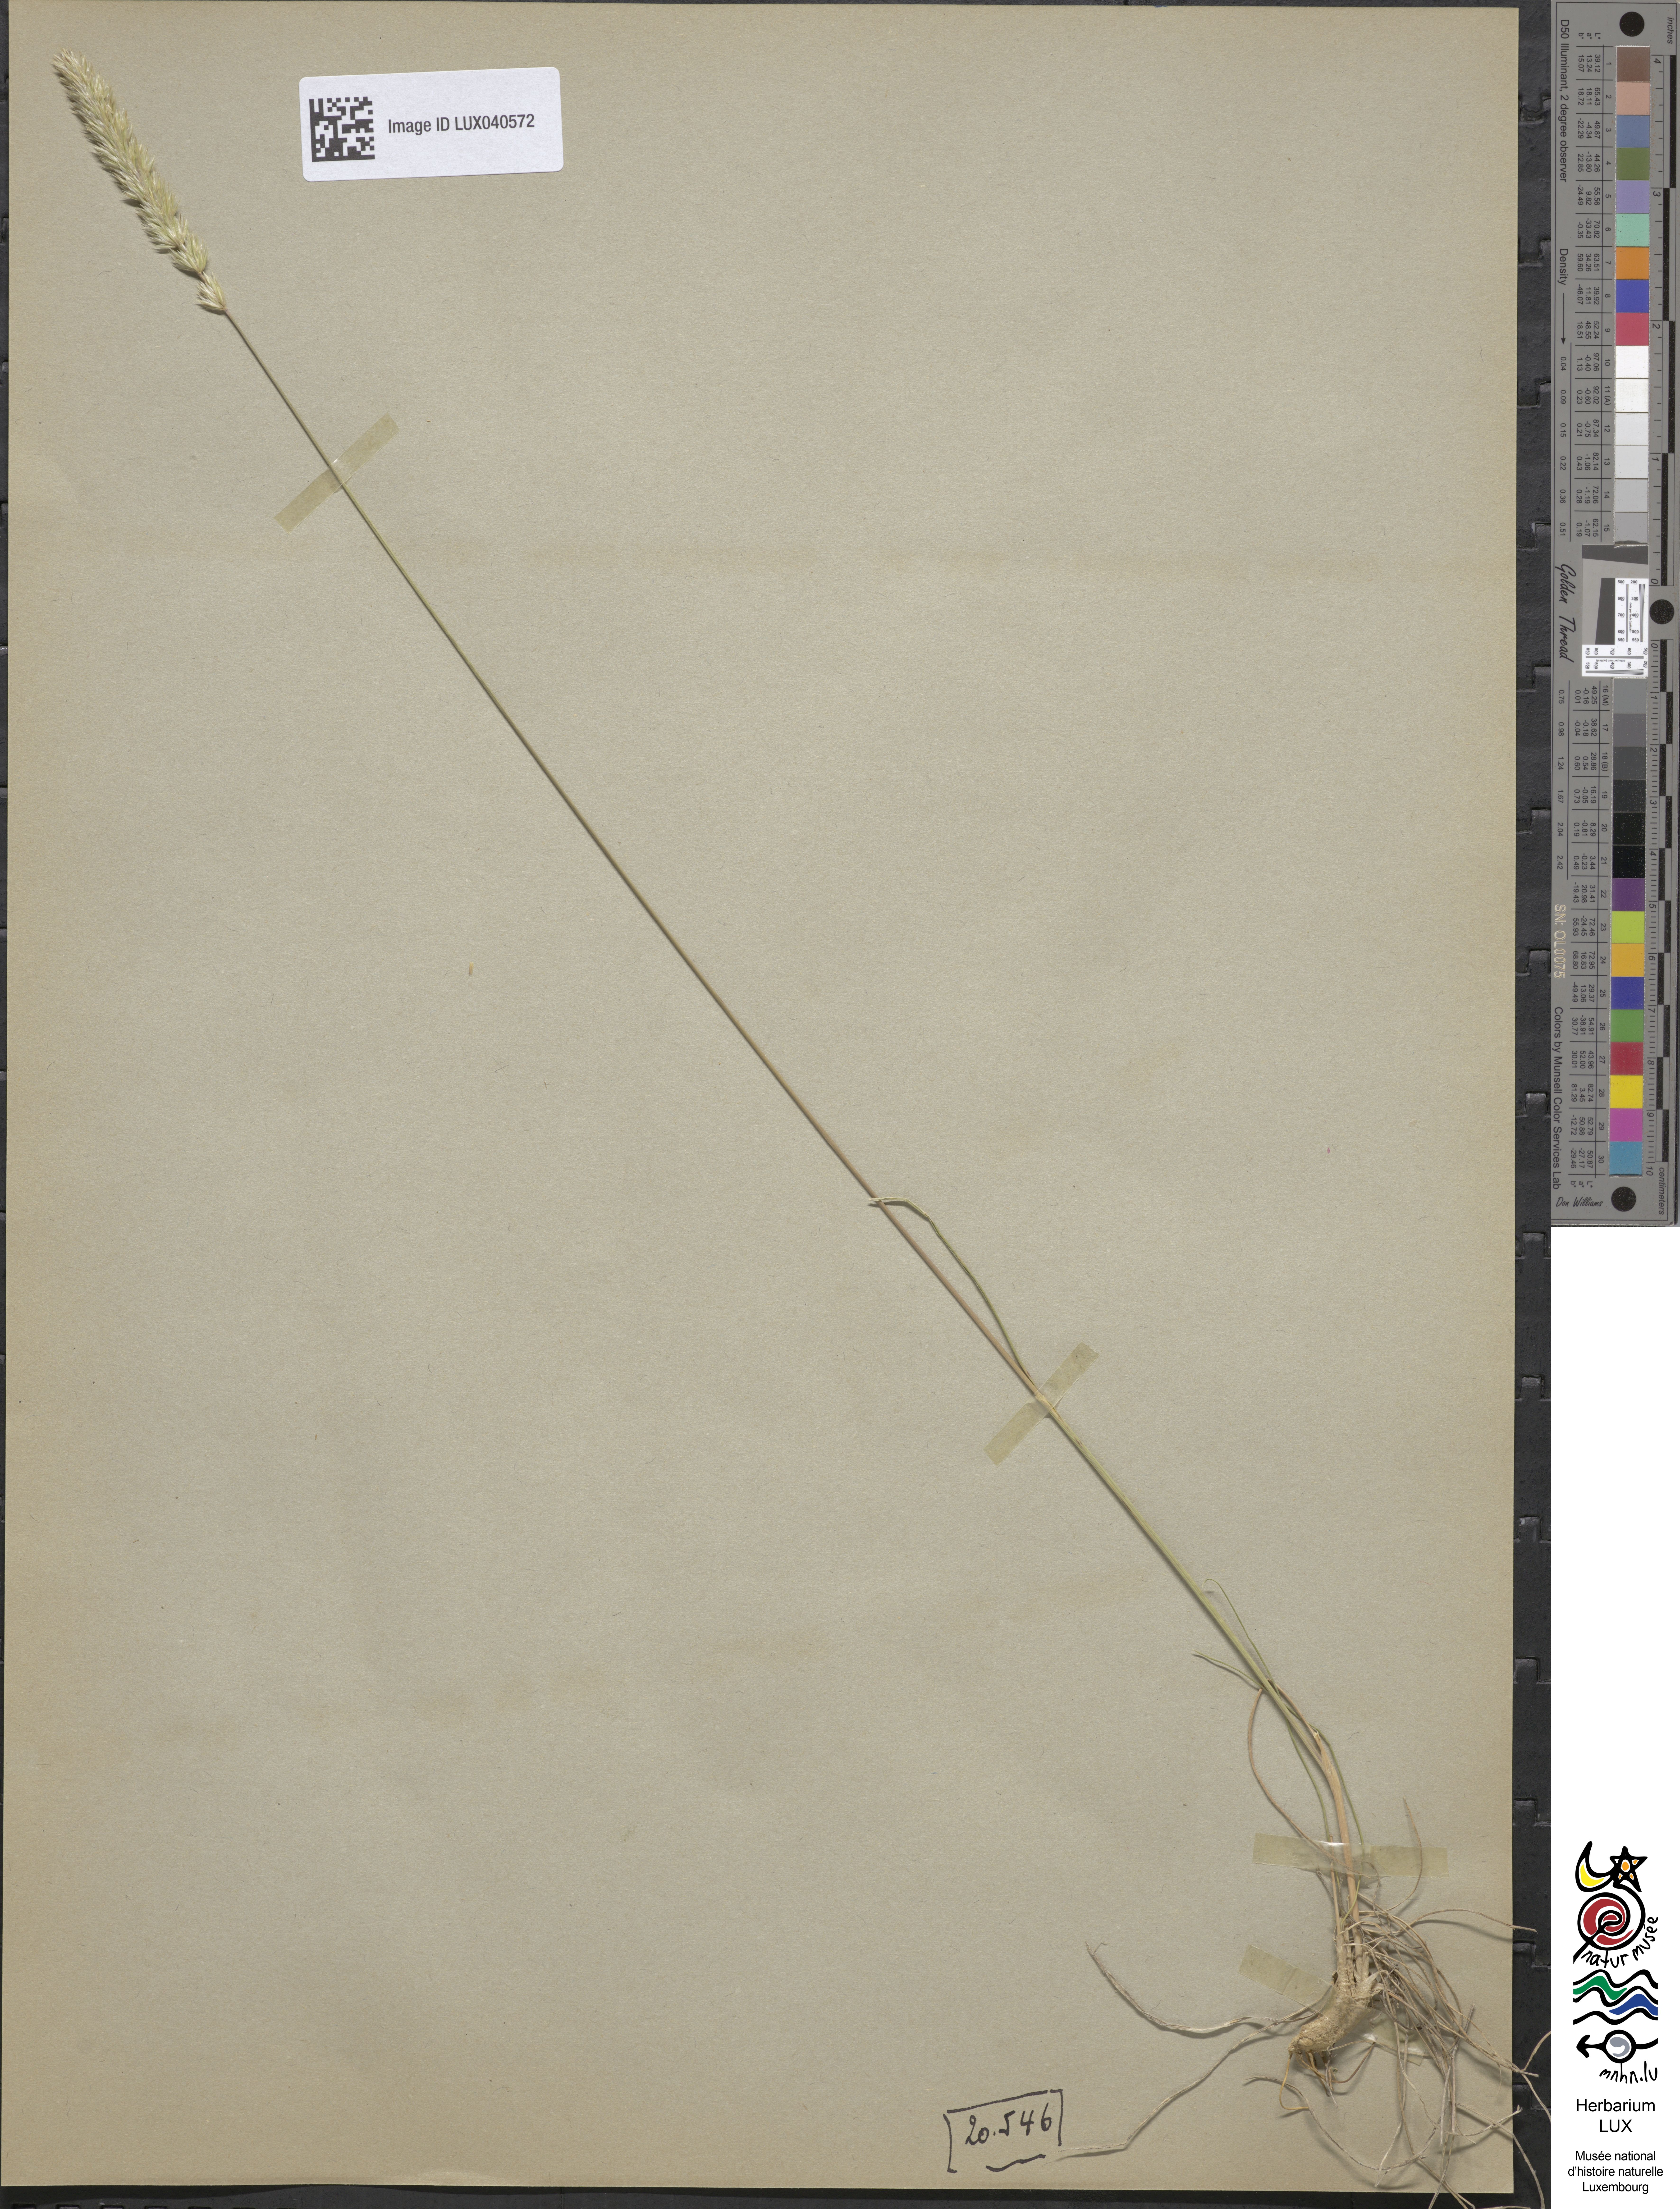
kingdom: Plantae
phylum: Tracheophyta
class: Liliopsida
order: Poales
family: Poaceae
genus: Koeleria
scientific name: Koeleria vallesiana
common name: Somerset hair-grass
